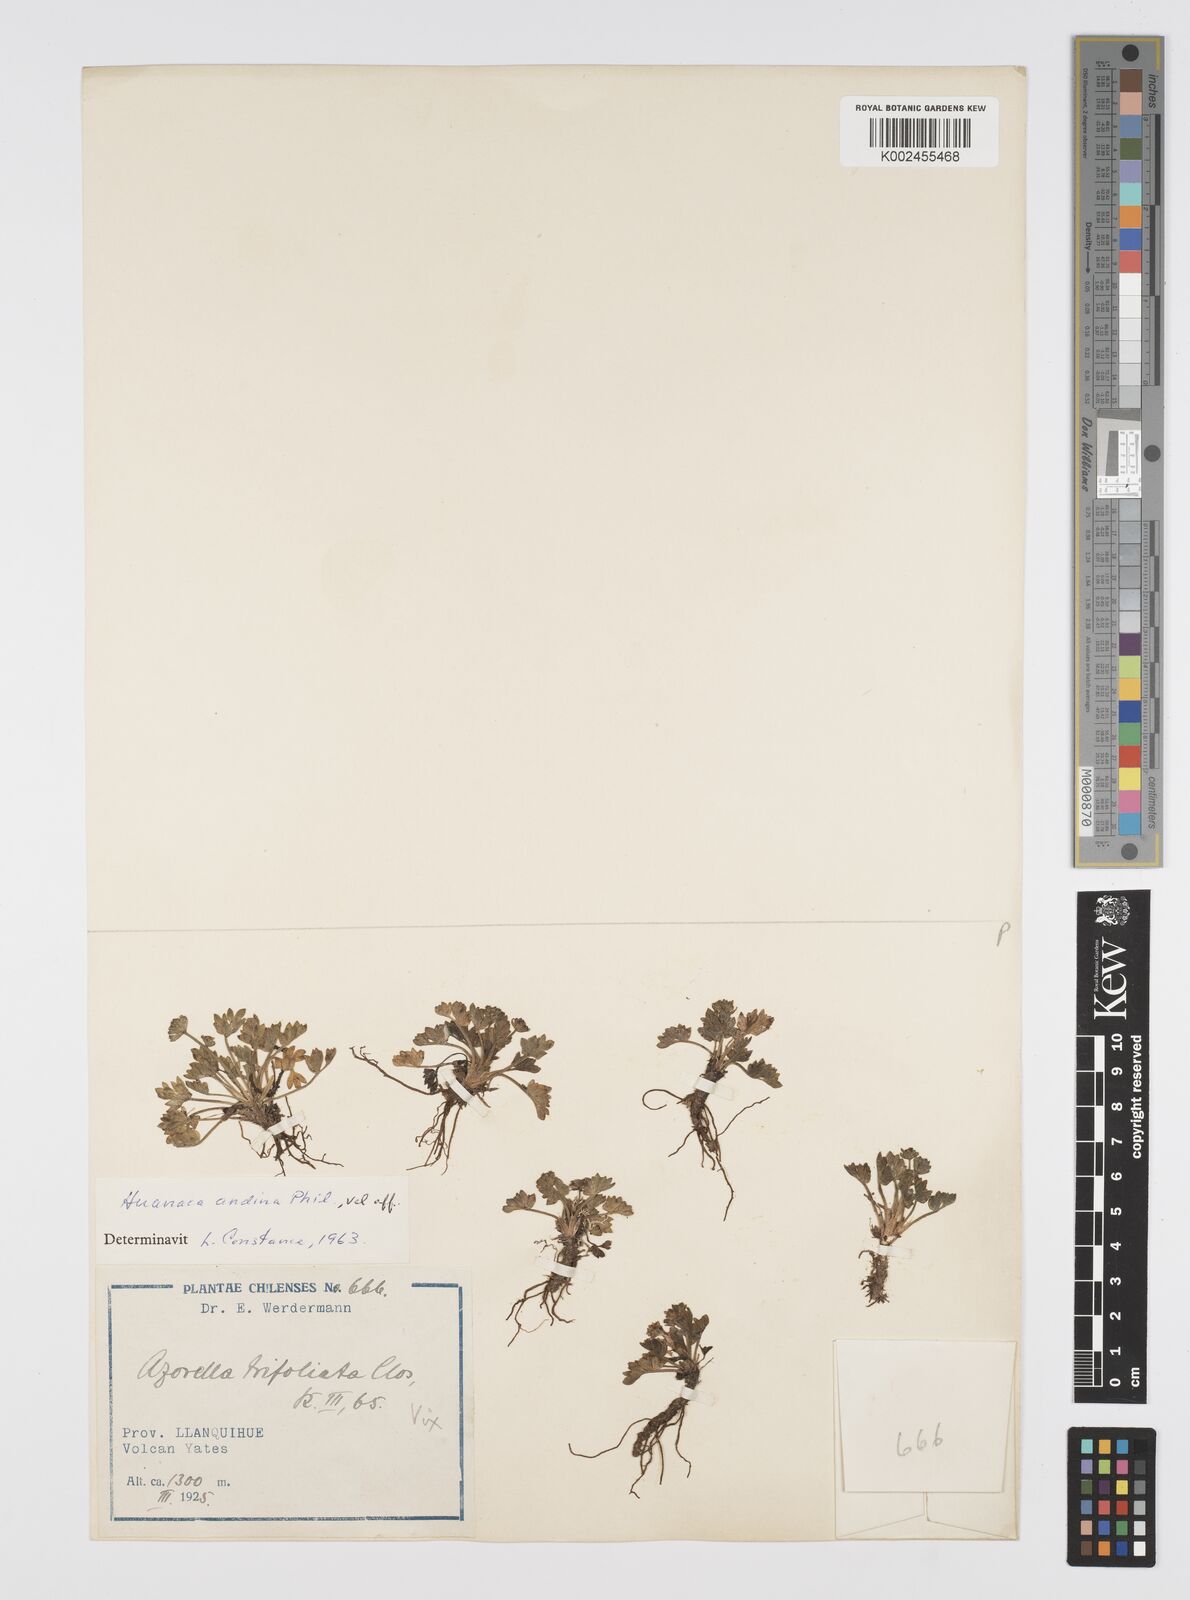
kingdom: Plantae
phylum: Tracheophyta
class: Magnoliopsida
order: Apiales
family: Apiaceae
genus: Azorella
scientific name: Azorella andina
